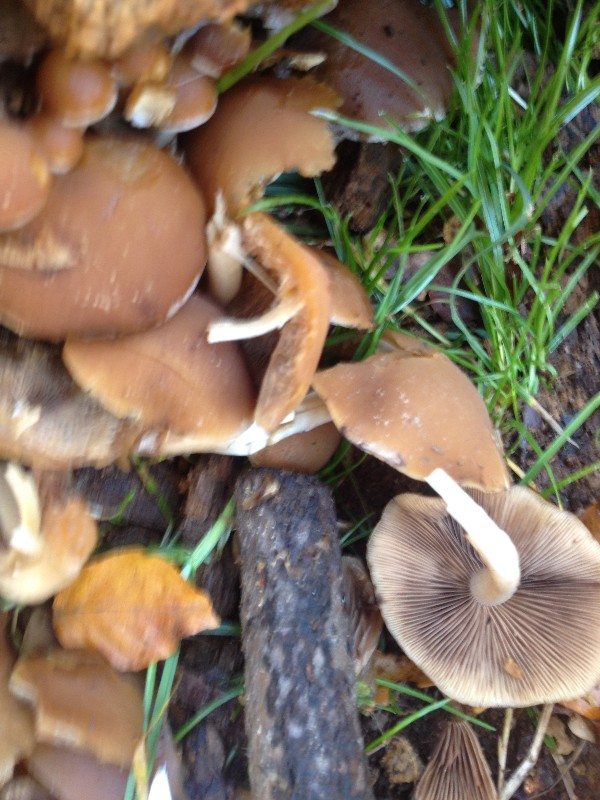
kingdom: Fungi
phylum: Basidiomycota
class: Agaricomycetes
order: Agaricales
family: Strophariaceae
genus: Kuehneromyces
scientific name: Kuehneromyces mutabilis
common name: foranderlig skælhat
